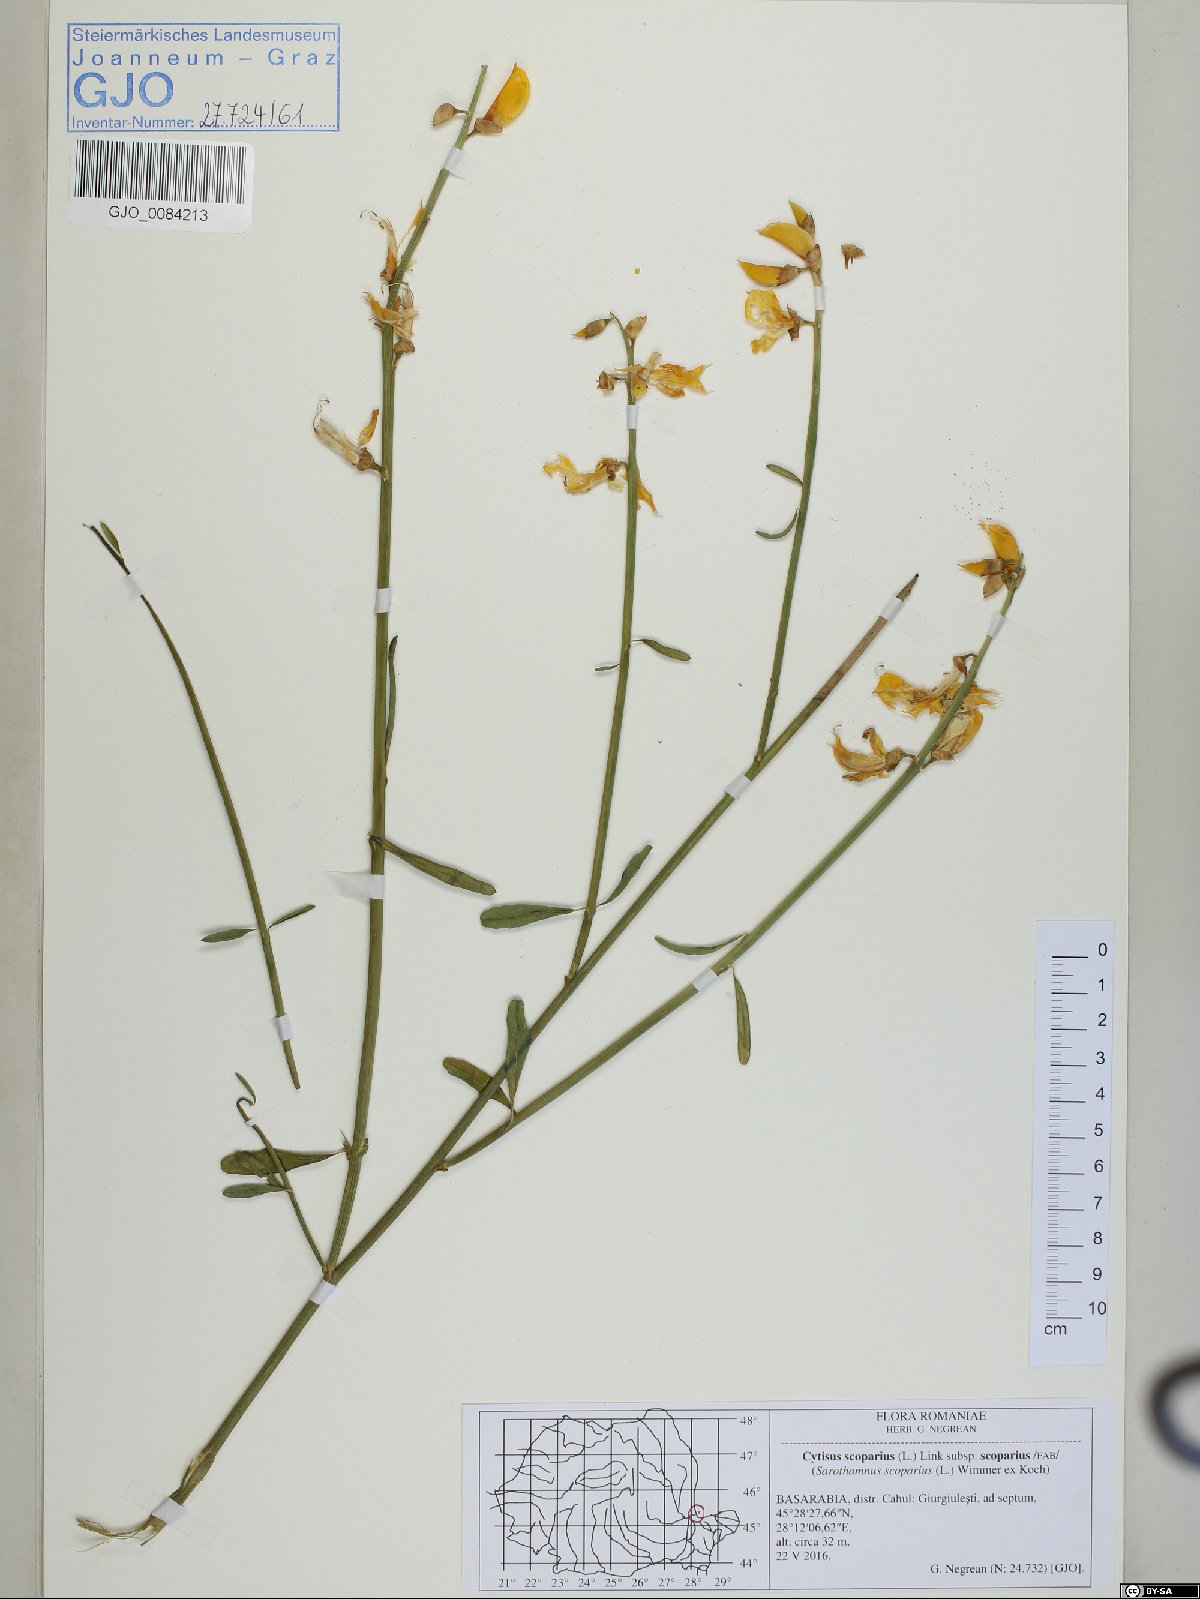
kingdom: Plantae
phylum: Tracheophyta
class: Magnoliopsida
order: Fabales
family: Fabaceae
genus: Spartium
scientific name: Spartium junceum
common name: Spanish broom
